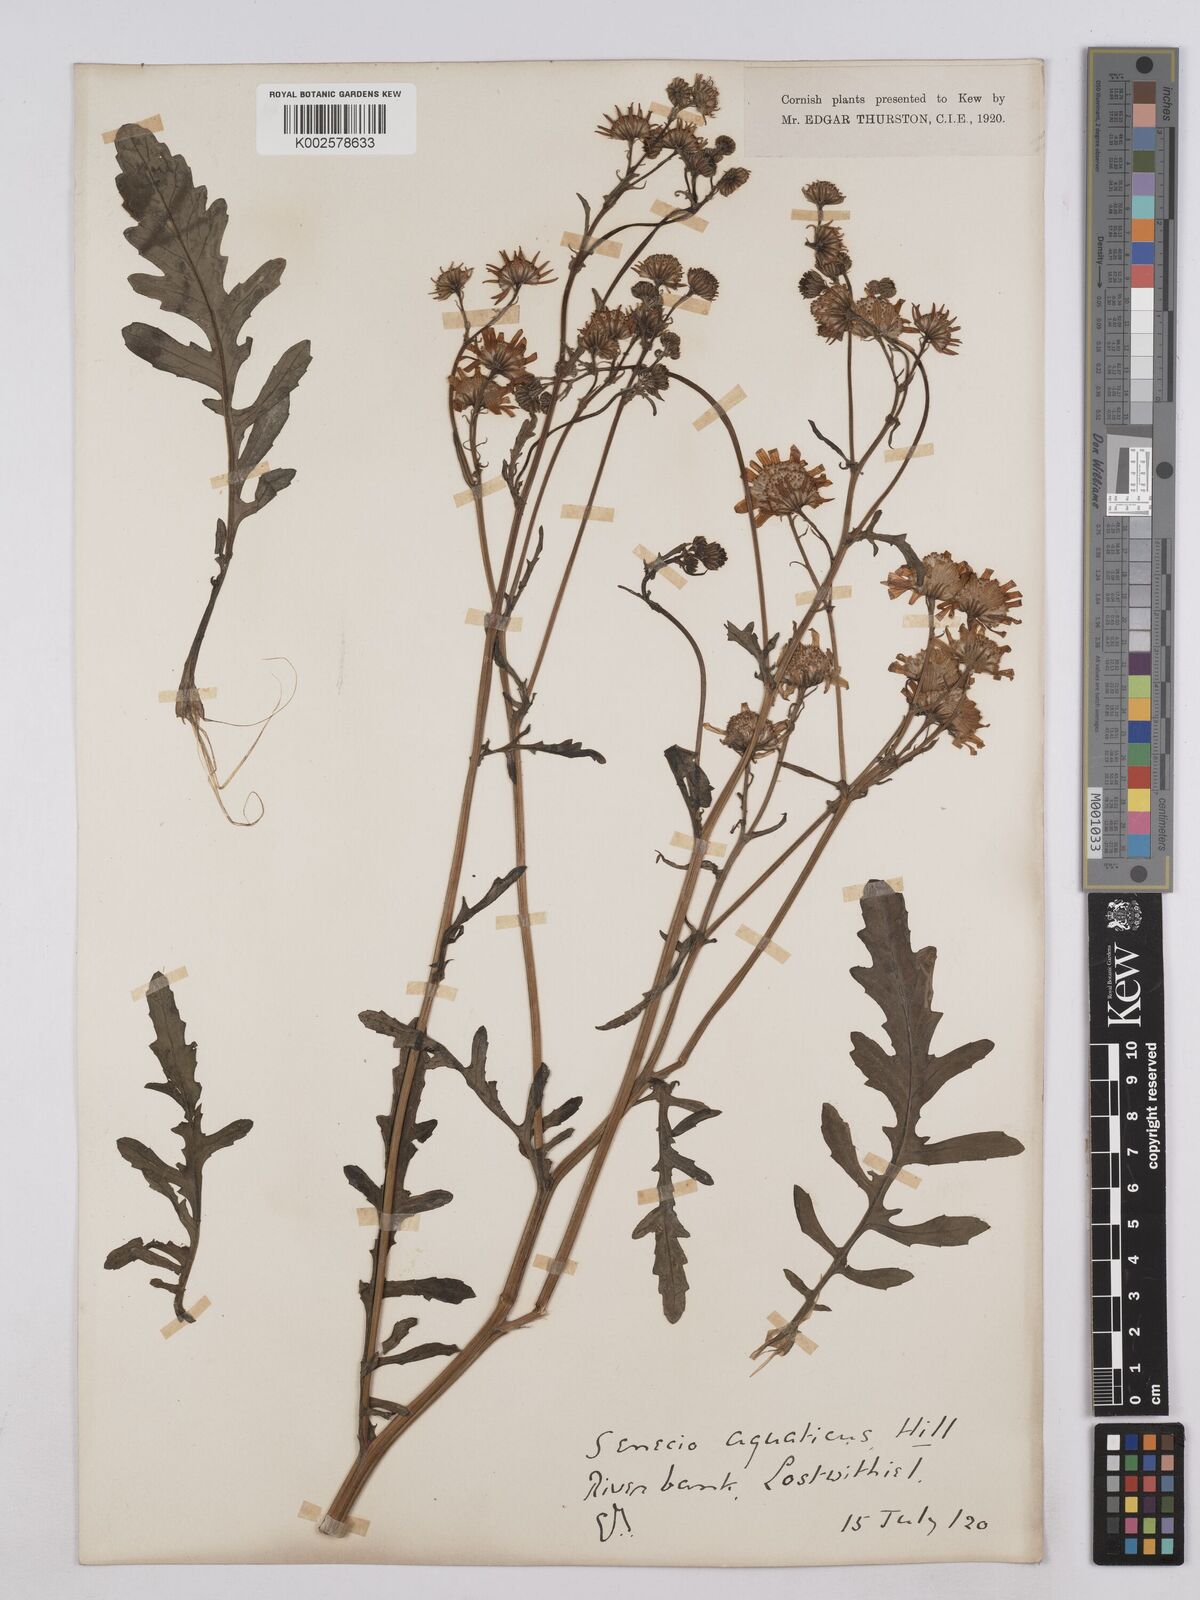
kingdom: Plantae
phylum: Tracheophyta
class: Magnoliopsida
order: Asterales
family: Asteraceae
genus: Jacobaea
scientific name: Jacobaea aquatica
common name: Water ragwort
